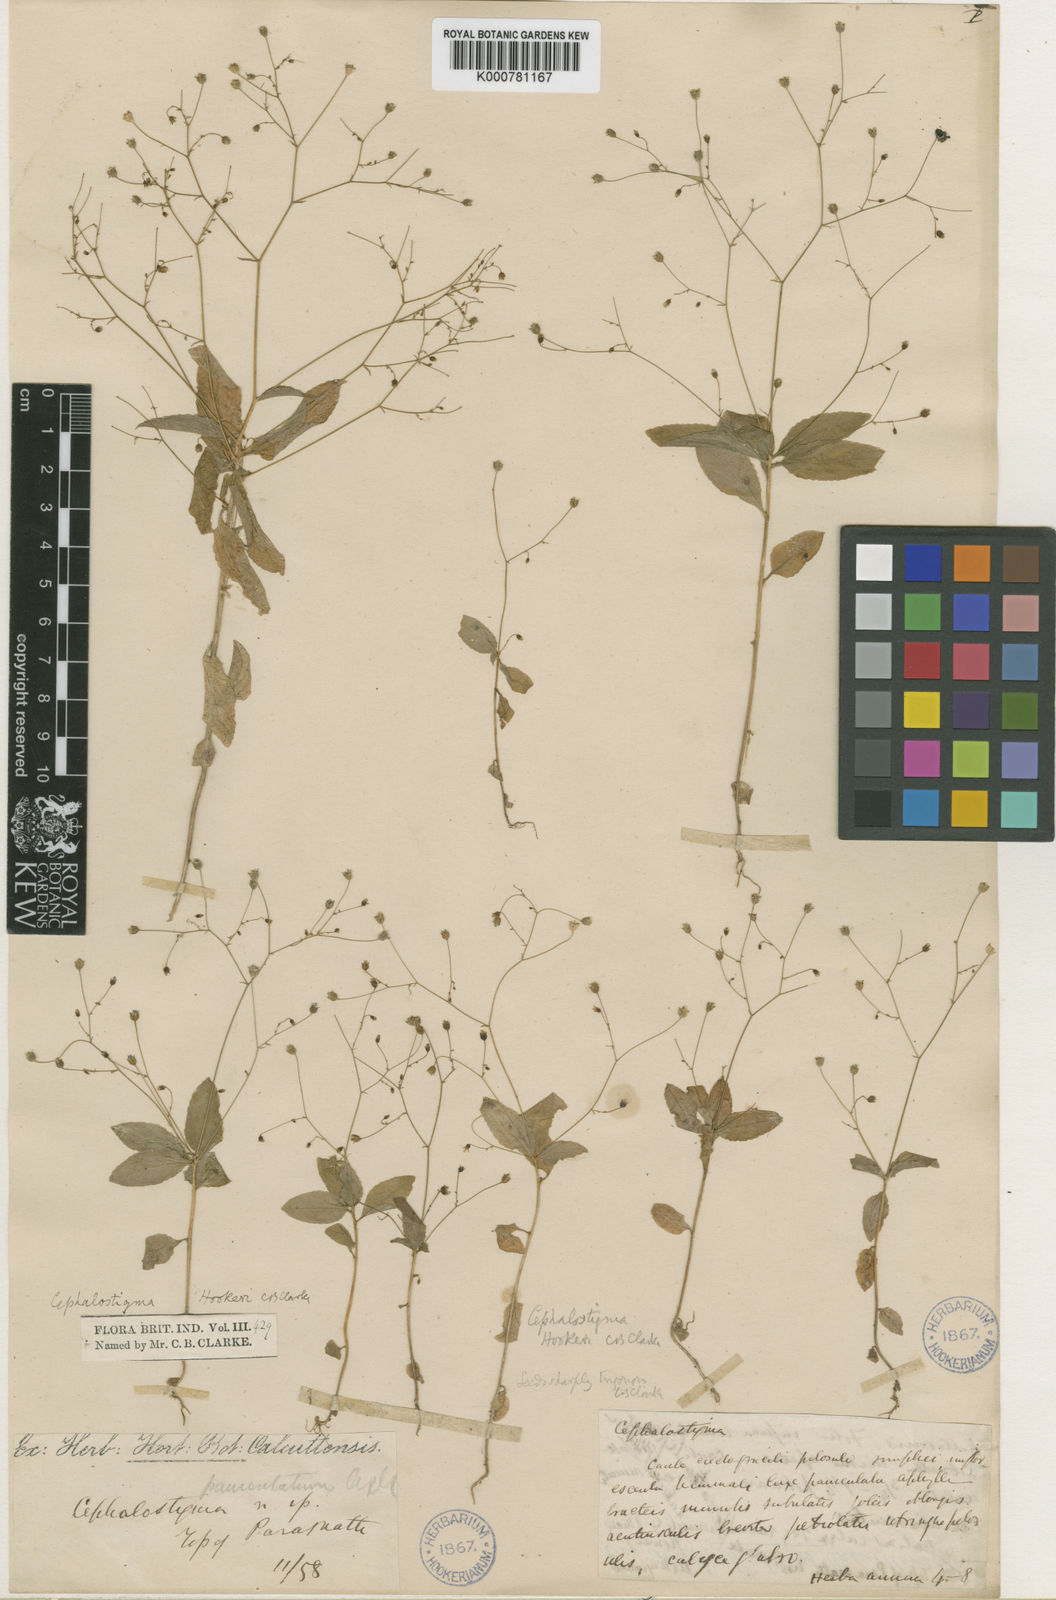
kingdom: Plantae
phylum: Tracheophyta
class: Magnoliopsida
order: Asterales
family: Campanulaceae
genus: Wahlenbergia
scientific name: Wahlenbergia hookeri
